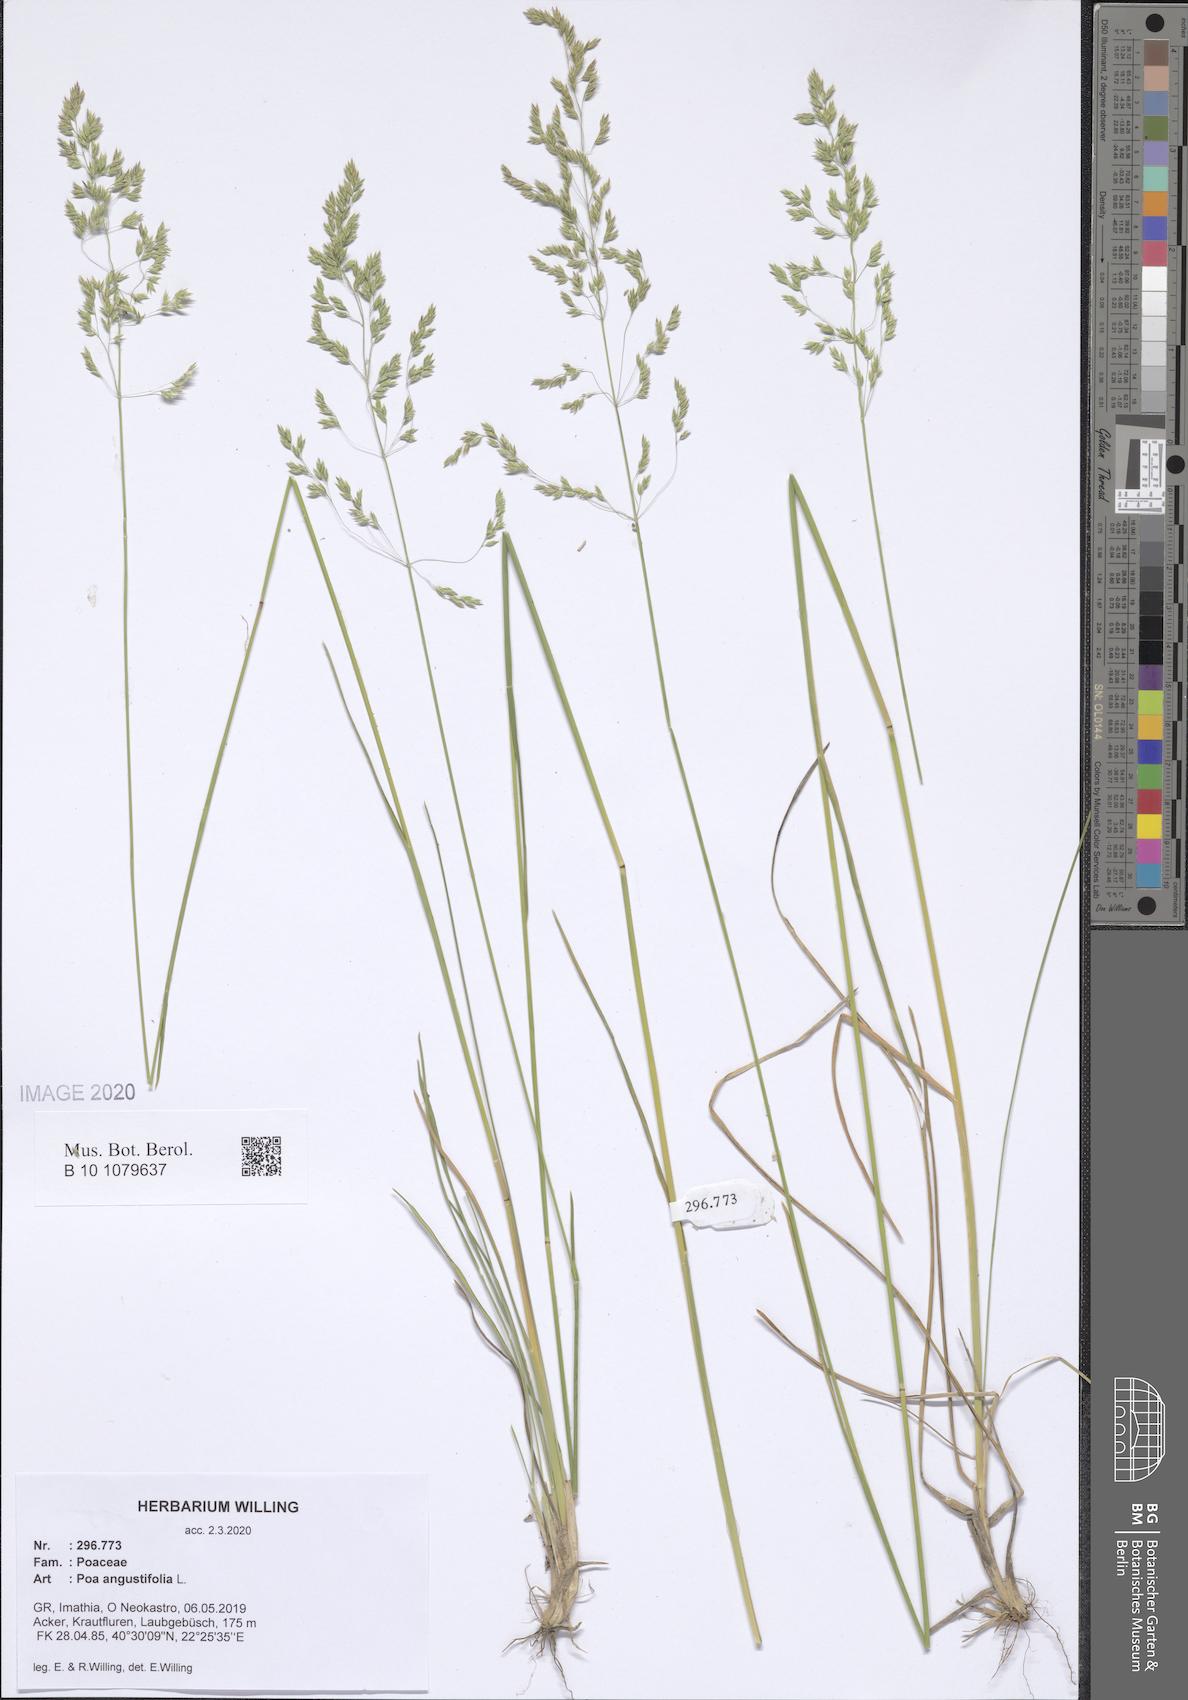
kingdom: Plantae
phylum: Tracheophyta
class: Liliopsida
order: Poales
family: Poaceae
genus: Poa
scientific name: Poa angustifolia
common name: Narrow-leaved meadow-grass
